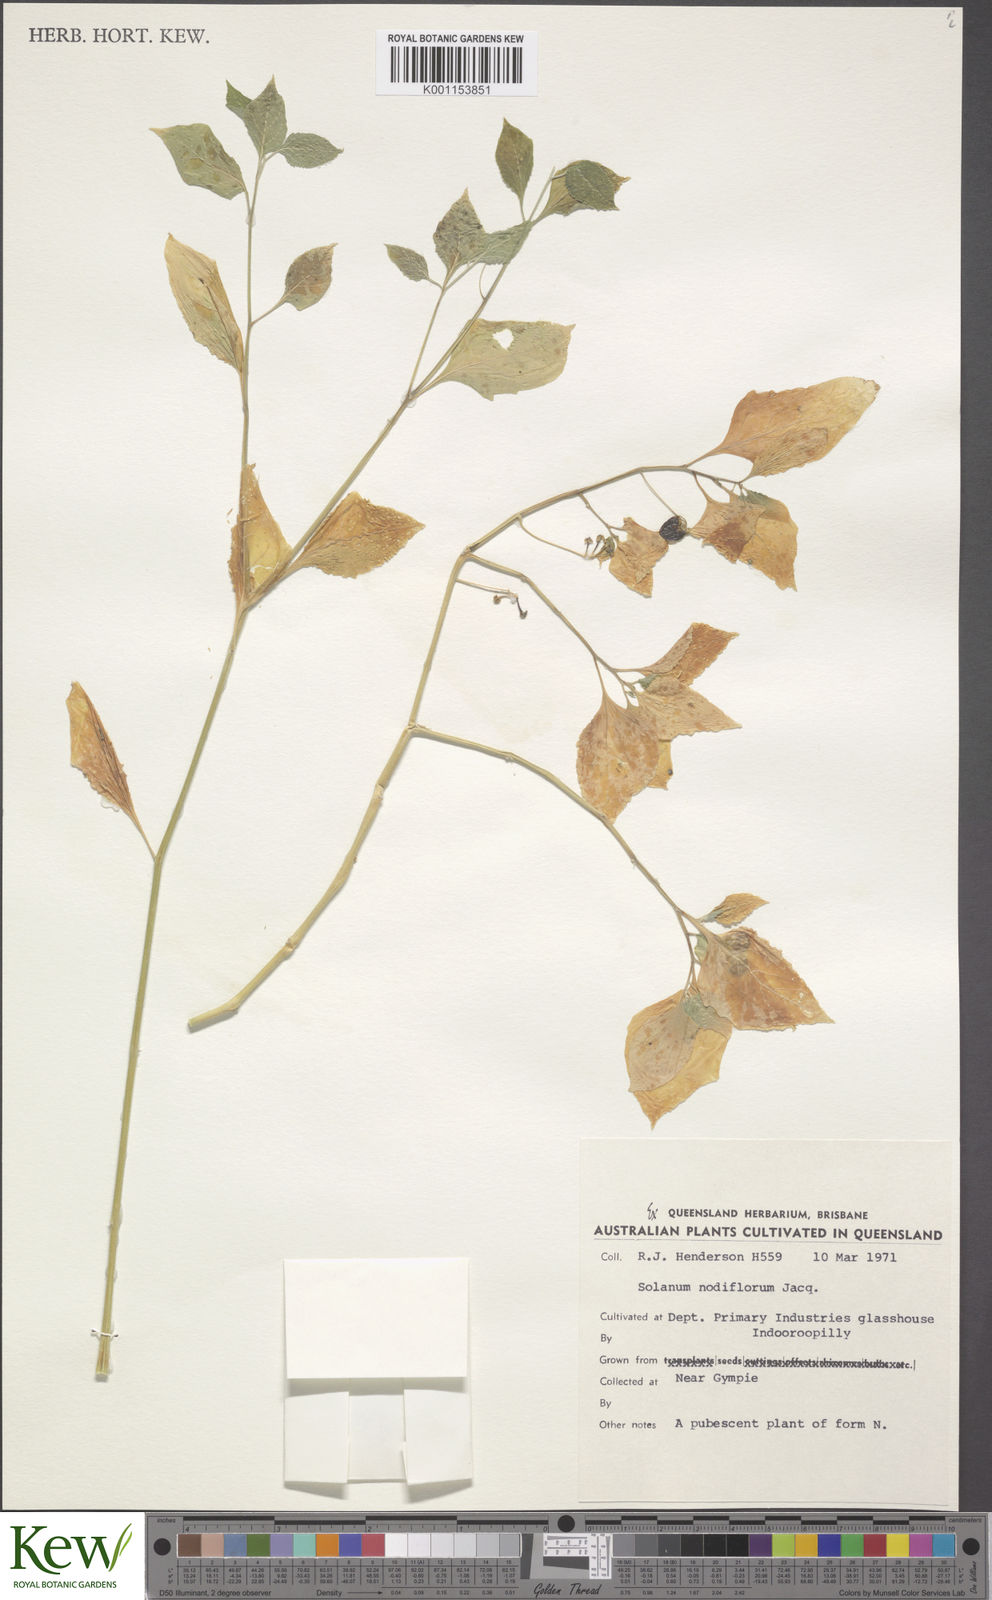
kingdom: Plantae
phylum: Tracheophyta
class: Magnoliopsida
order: Solanales
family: Solanaceae
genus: Solanum
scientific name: Solanum americanum
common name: American black nightshade
